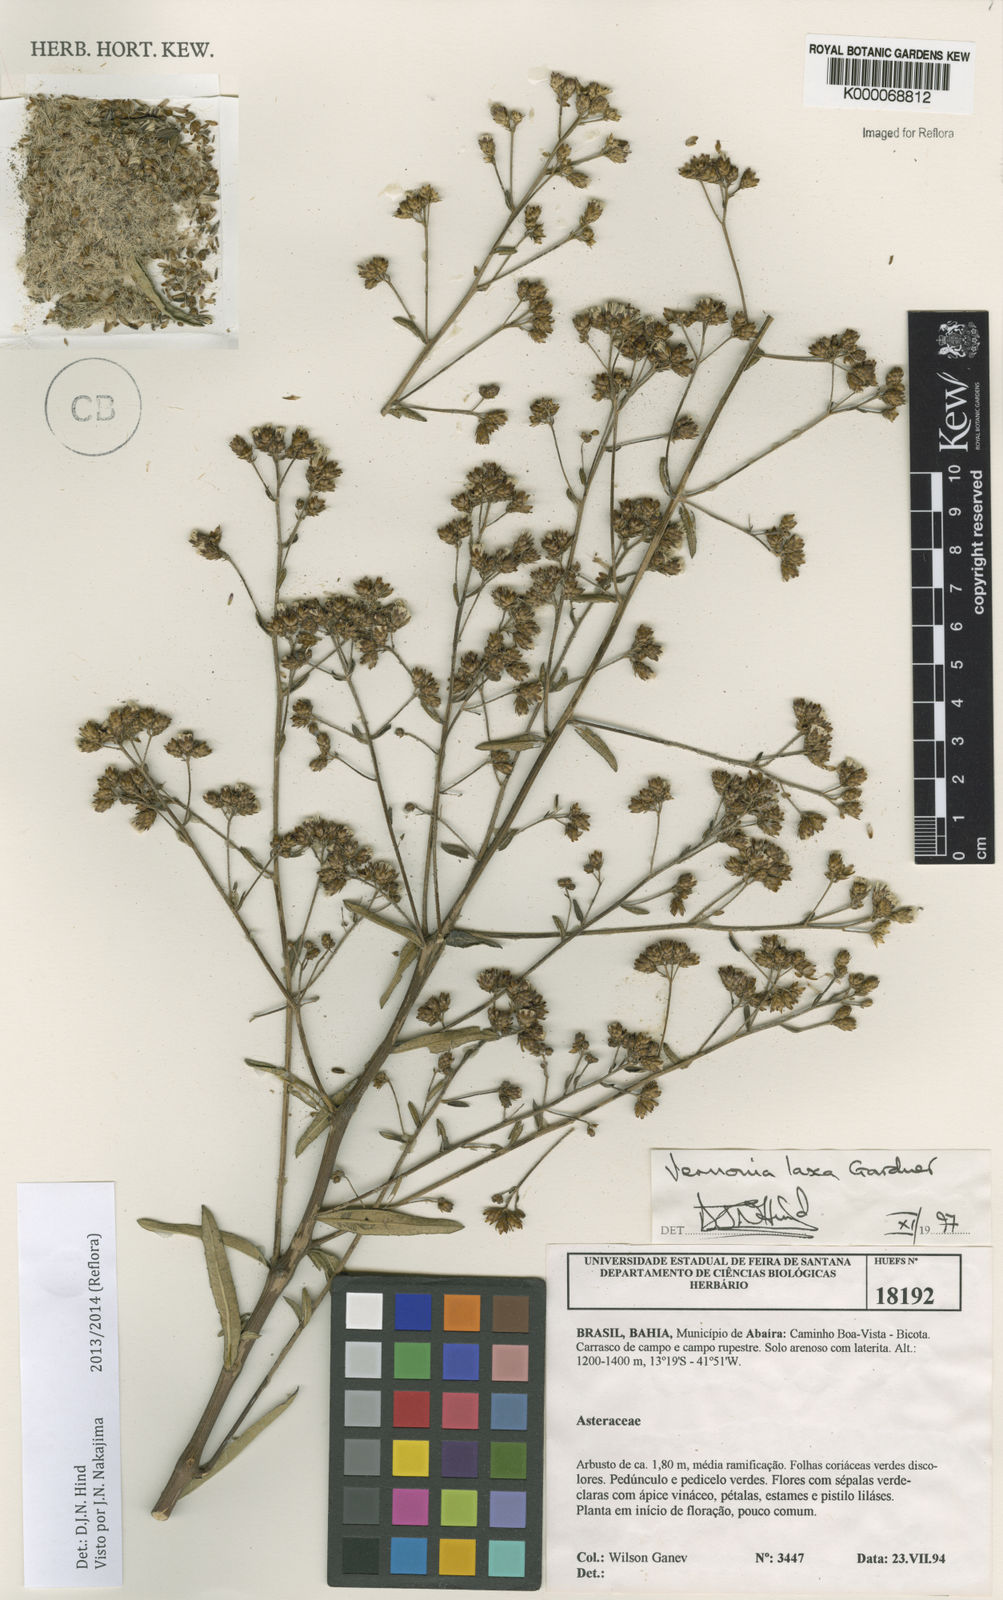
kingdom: Plantae
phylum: Tracheophyta
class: Magnoliopsida
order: Asterales
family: Asteraceae
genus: Vernonanthura
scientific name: Vernonanthura laxa
